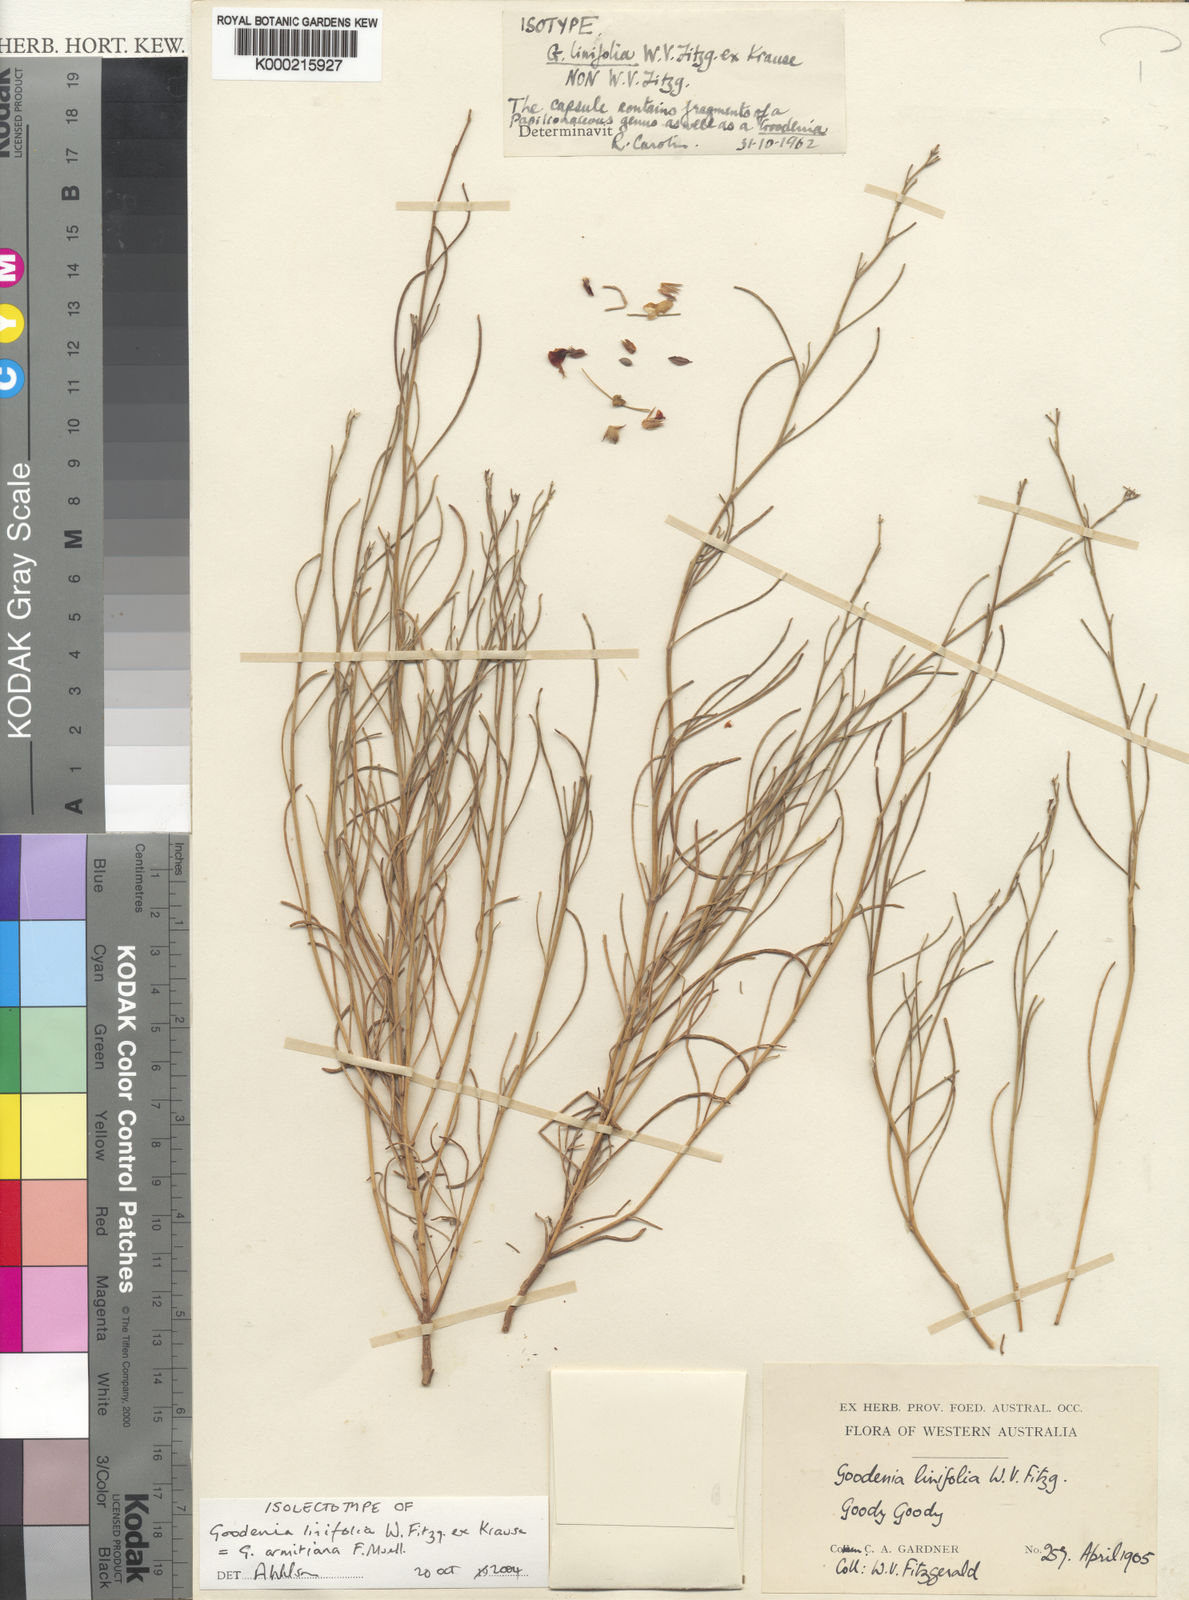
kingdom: Plantae
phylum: Tracheophyta
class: Magnoliopsida
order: Asterales
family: Goodeniaceae
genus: Goodenia
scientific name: Goodenia armitiana
